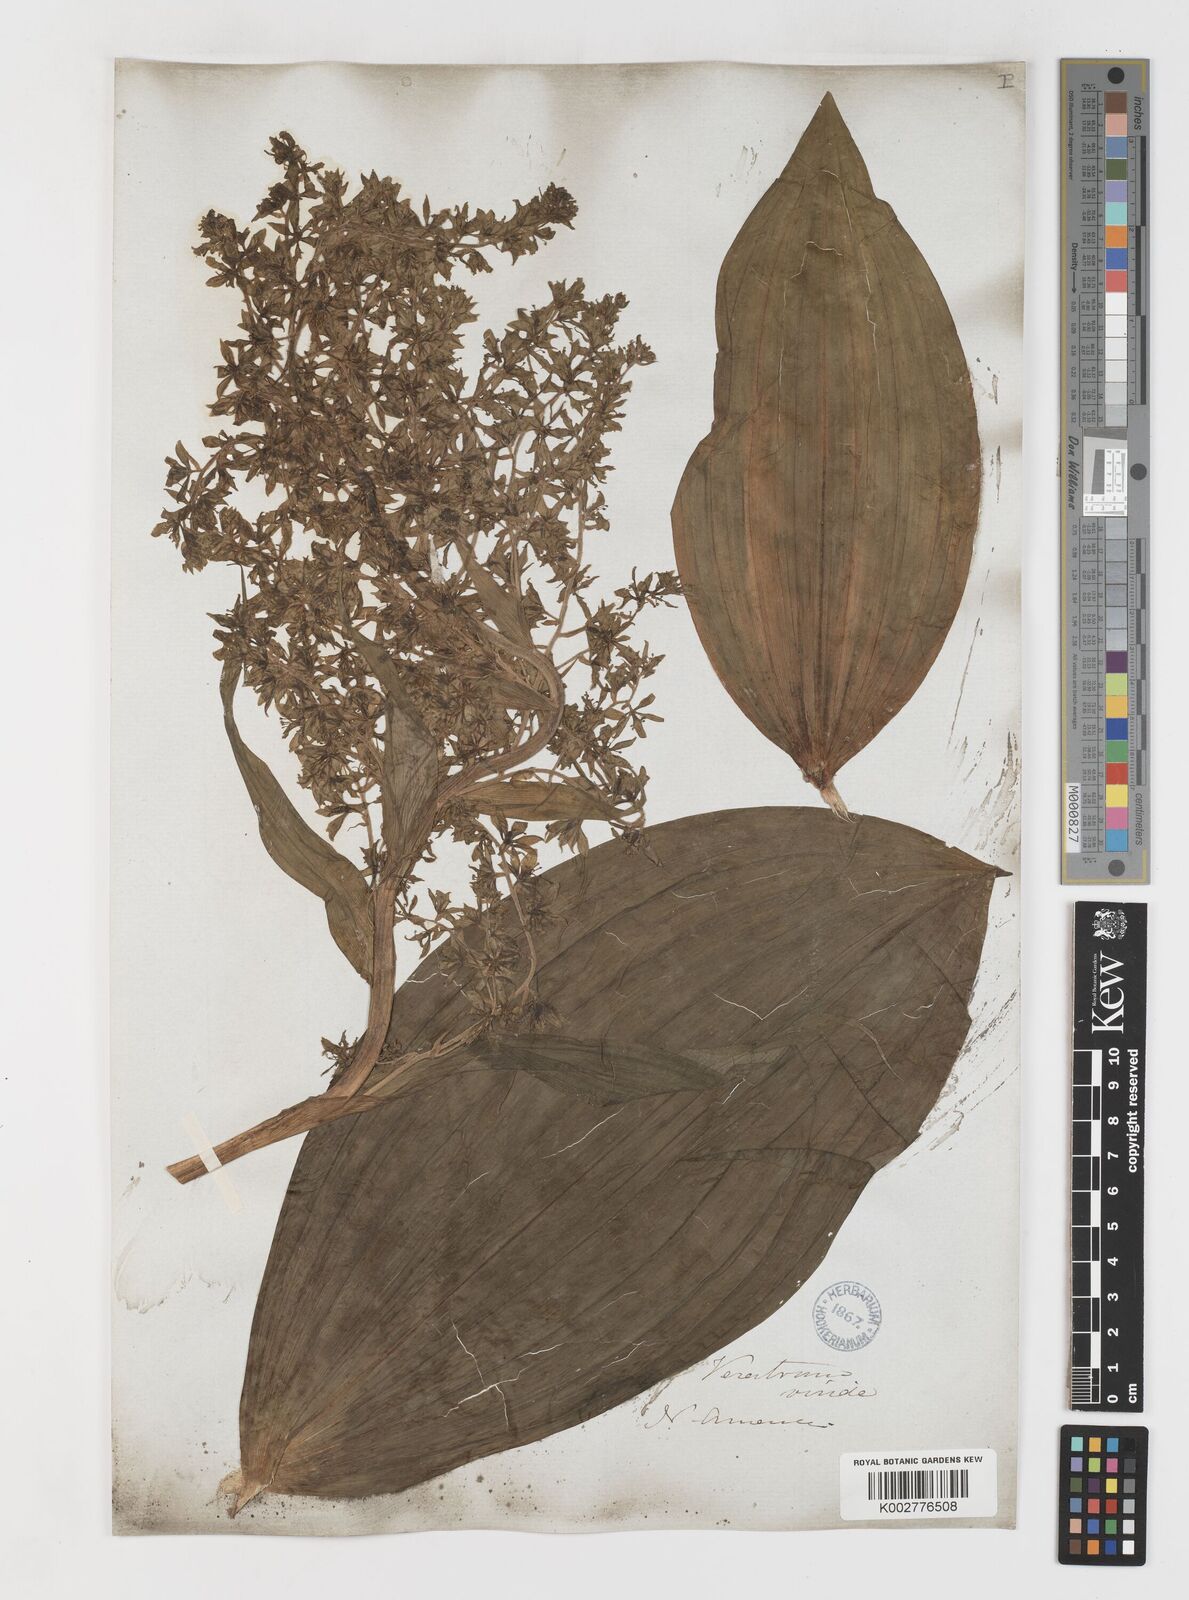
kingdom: Plantae
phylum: Tracheophyta
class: Liliopsida
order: Liliales
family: Melanthiaceae
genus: Veratrum
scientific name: Veratrum viride
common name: American false hellebore
